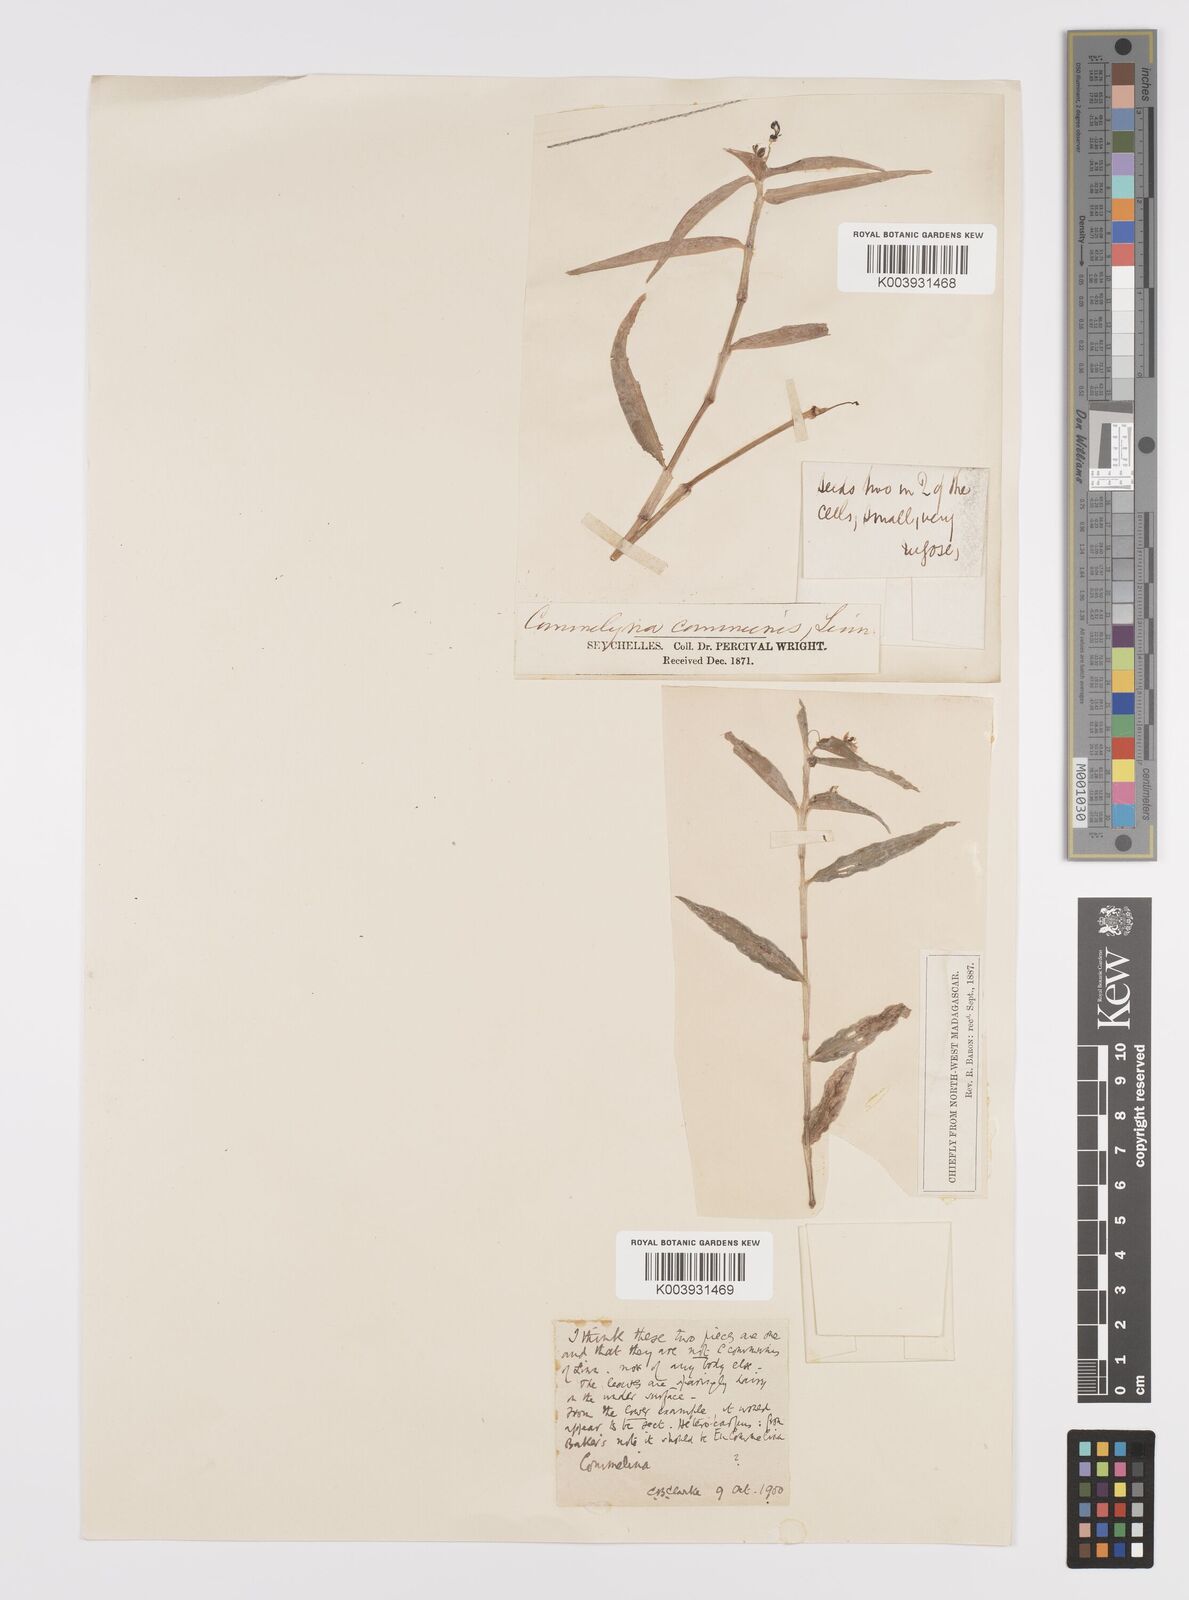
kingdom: Plantae
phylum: Tracheophyta
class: Liliopsida
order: Commelinales
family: Commelinaceae
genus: Commelina
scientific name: Commelina longifolia
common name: Longleaf dayflower
